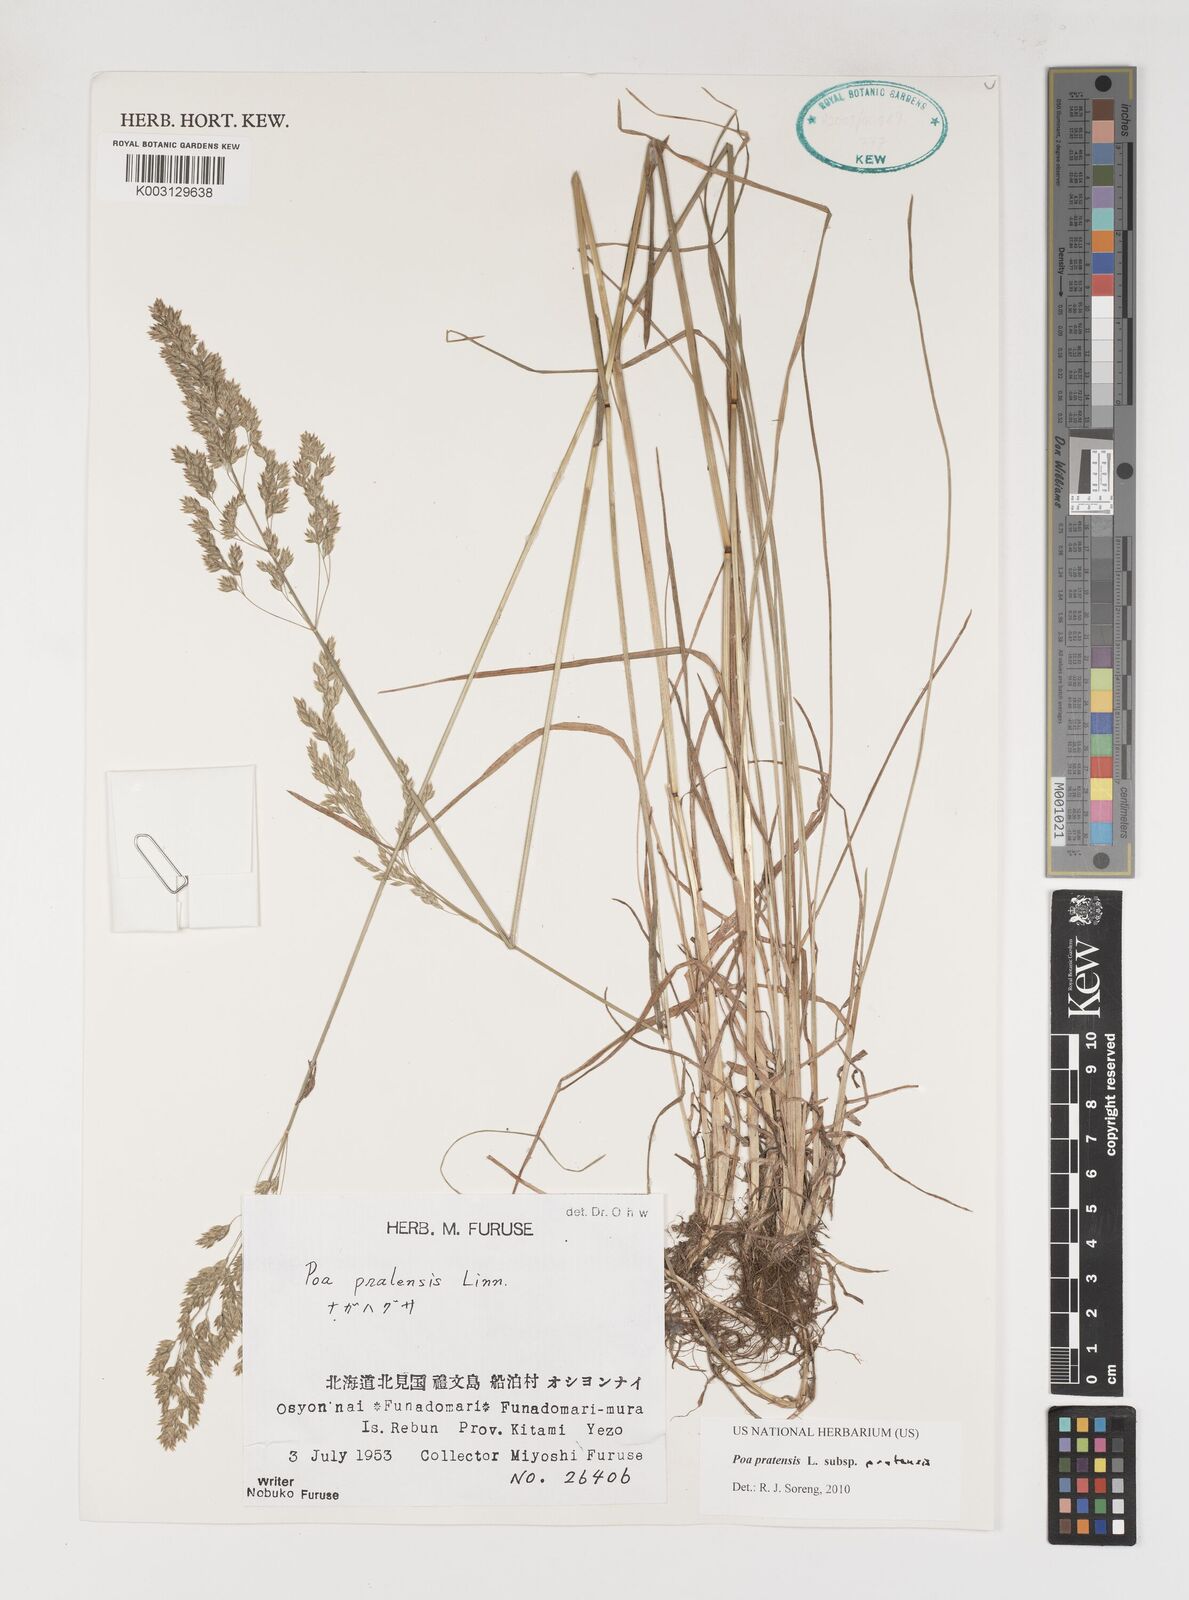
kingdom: Plantae
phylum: Tracheophyta
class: Liliopsida
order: Poales
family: Poaceae
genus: Poa
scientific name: Poa angustifolia
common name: Narrow-leaved meadow-grass
